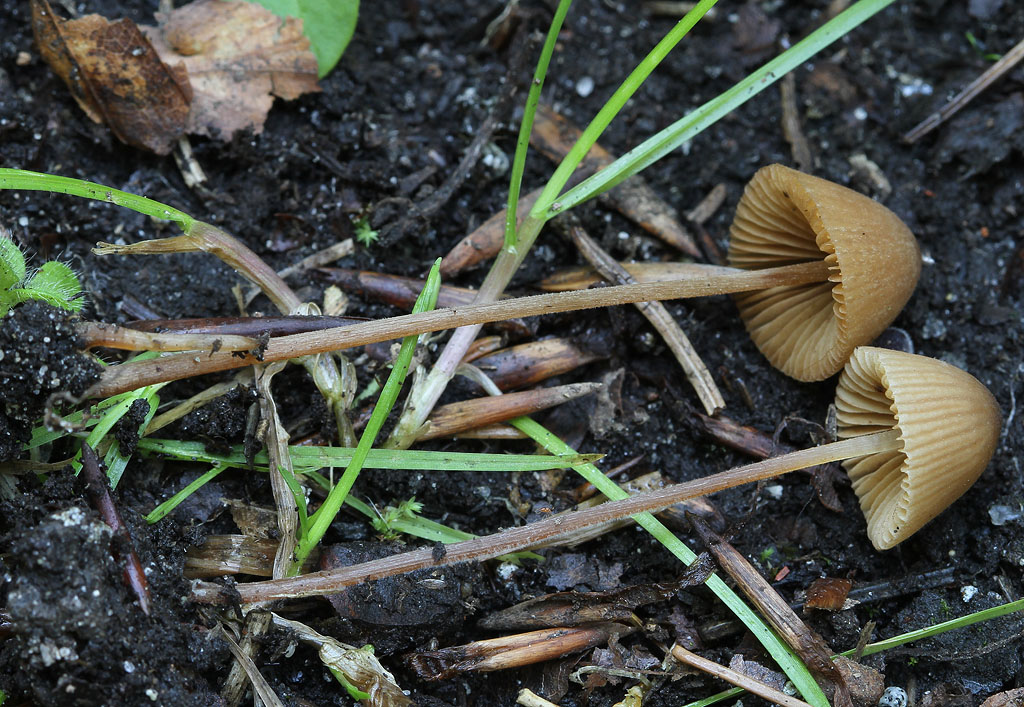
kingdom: Fungi
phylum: Basidiomycota
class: Agaricomycetes
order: Agaricales
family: Bolbitiaceae
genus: Conocybe
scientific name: Conocybe velutipes
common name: lædergul keglehat
